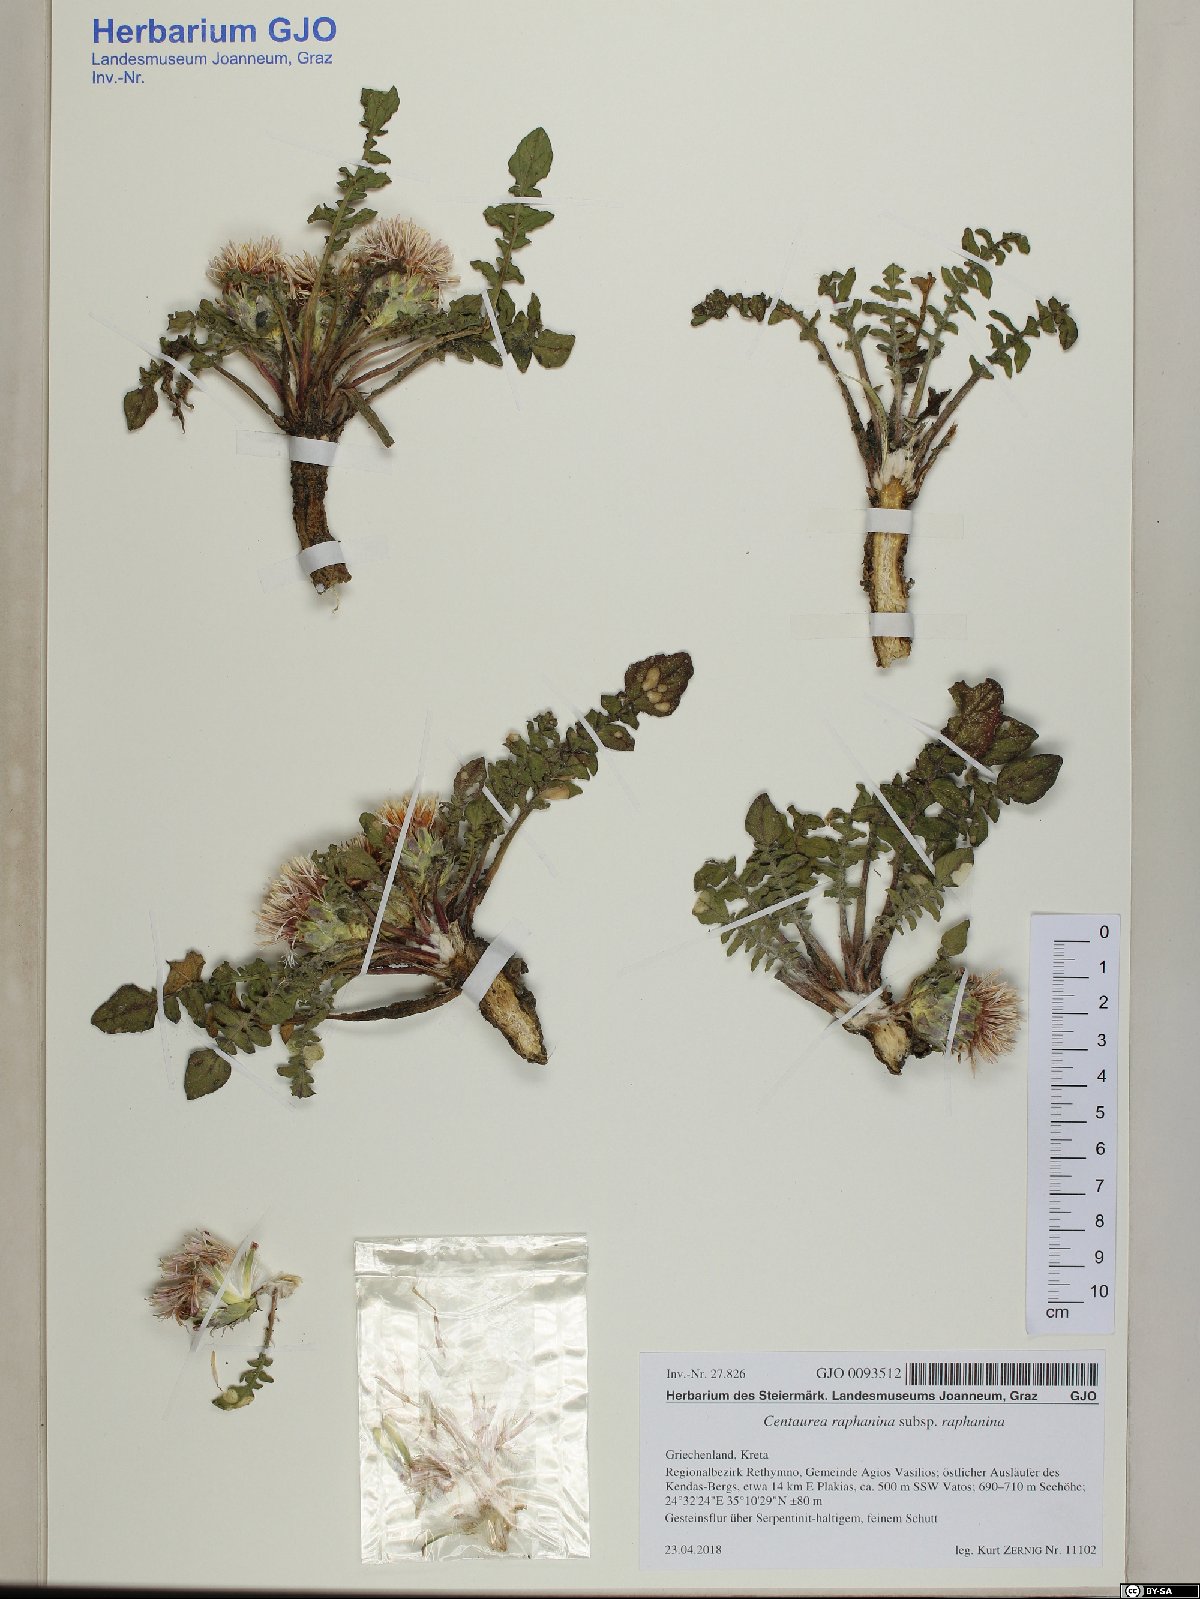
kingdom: Plantae
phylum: Tracheophyta
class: Magnoliopsida
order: Asterales
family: Asteraceae
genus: Centaurea
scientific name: Centaurea raphanina
